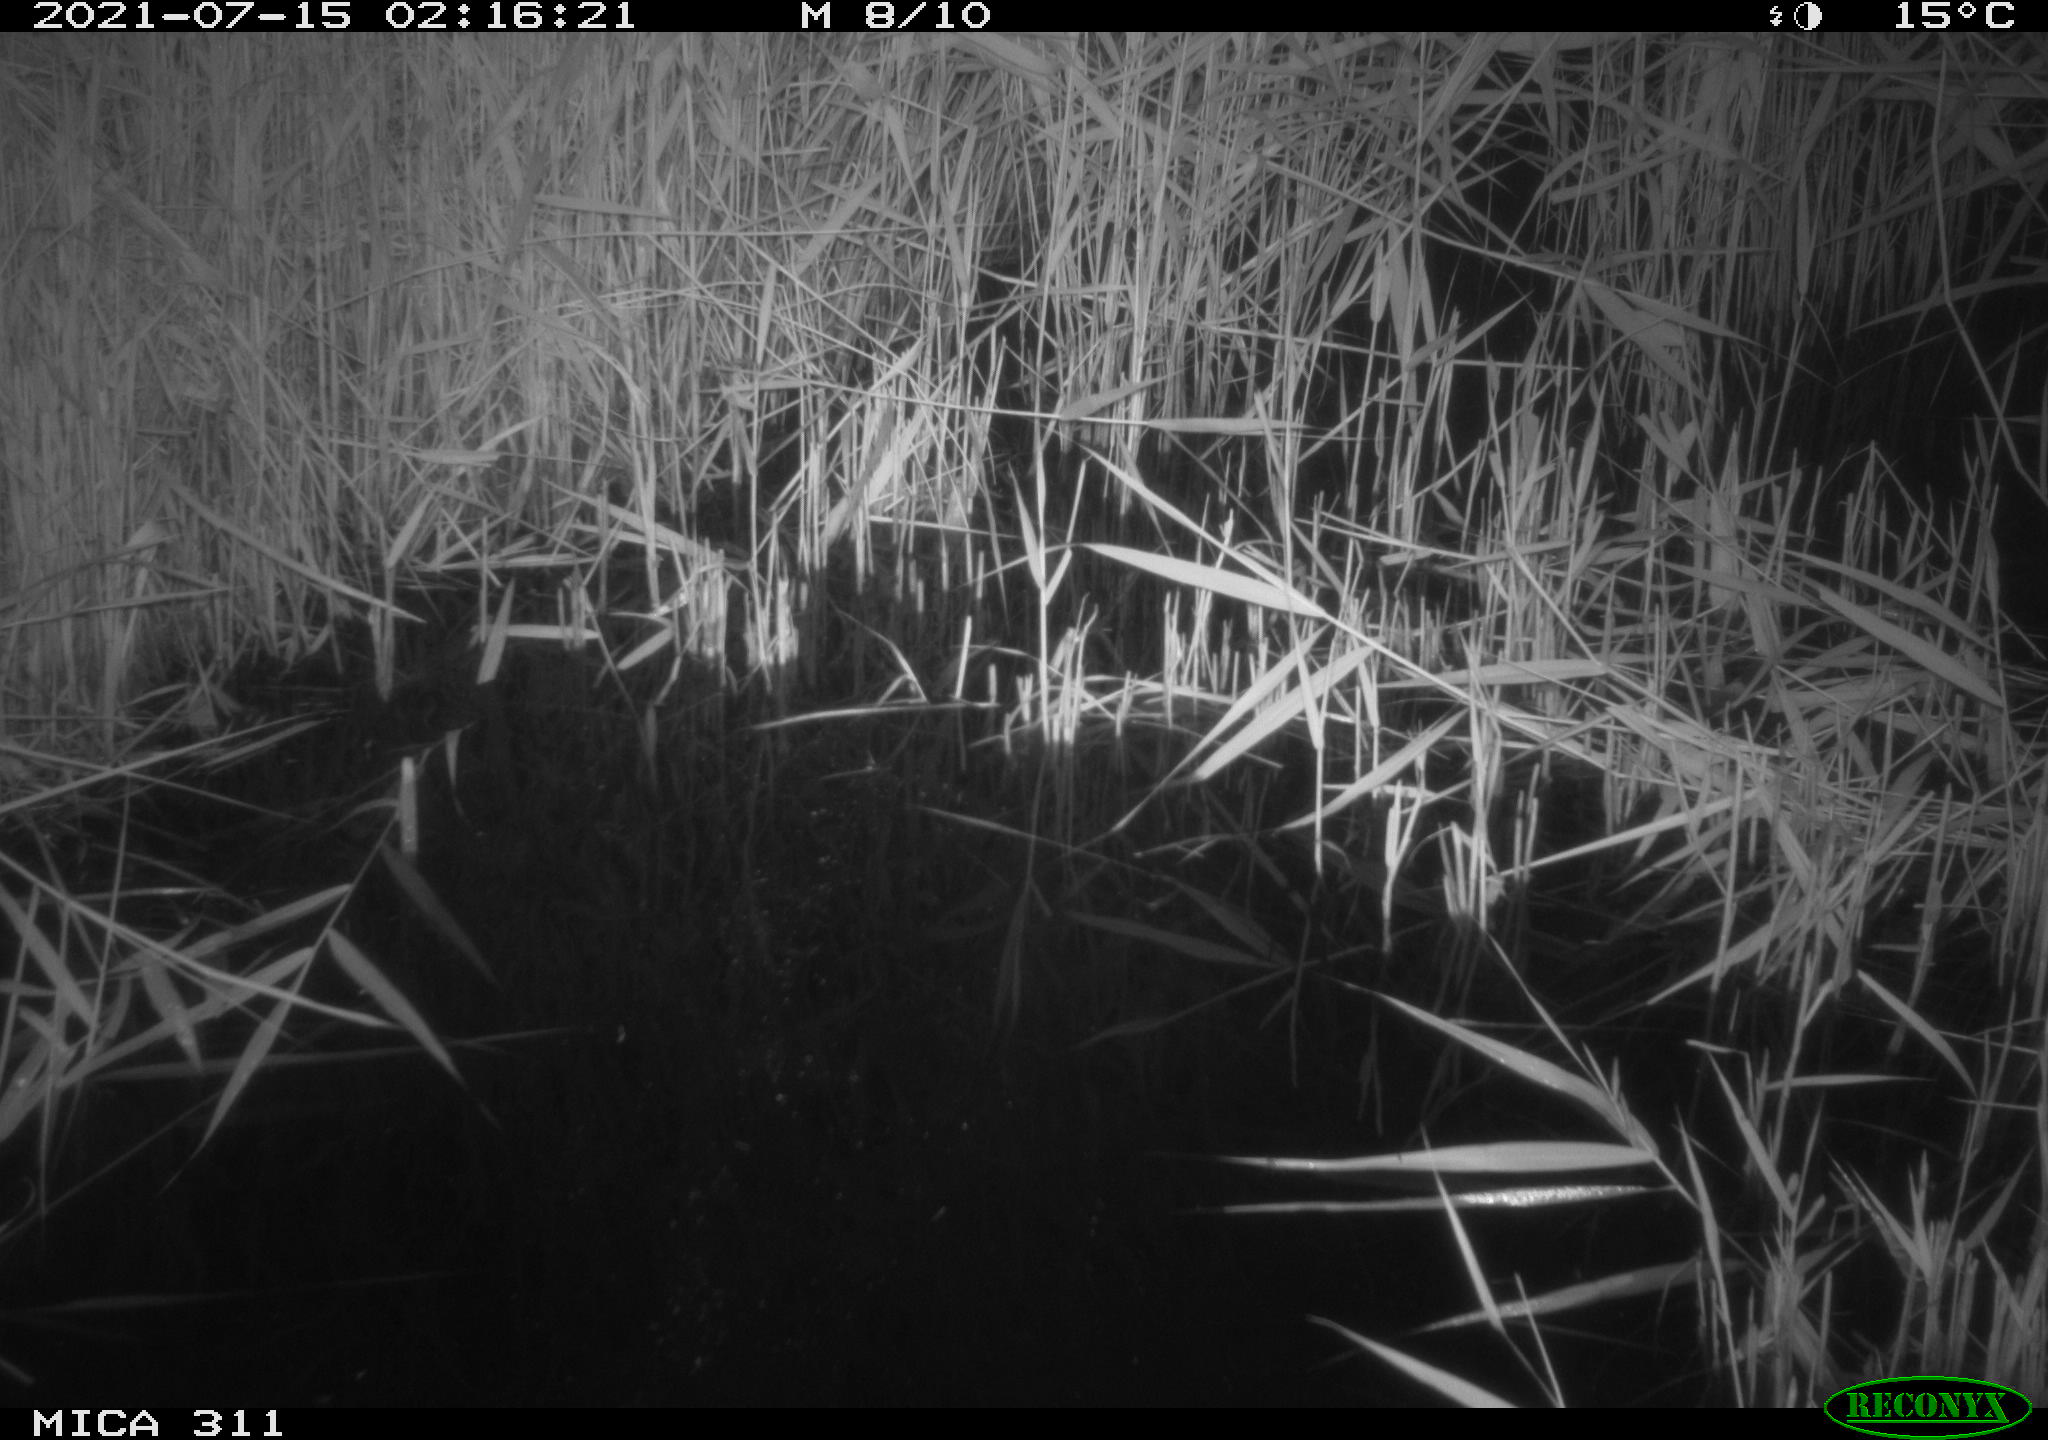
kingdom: Animalia
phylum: Chordata
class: Mammalia
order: Rodentia
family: Muridae
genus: Rattus
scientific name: Rattus norvegicus
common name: Brown rat
